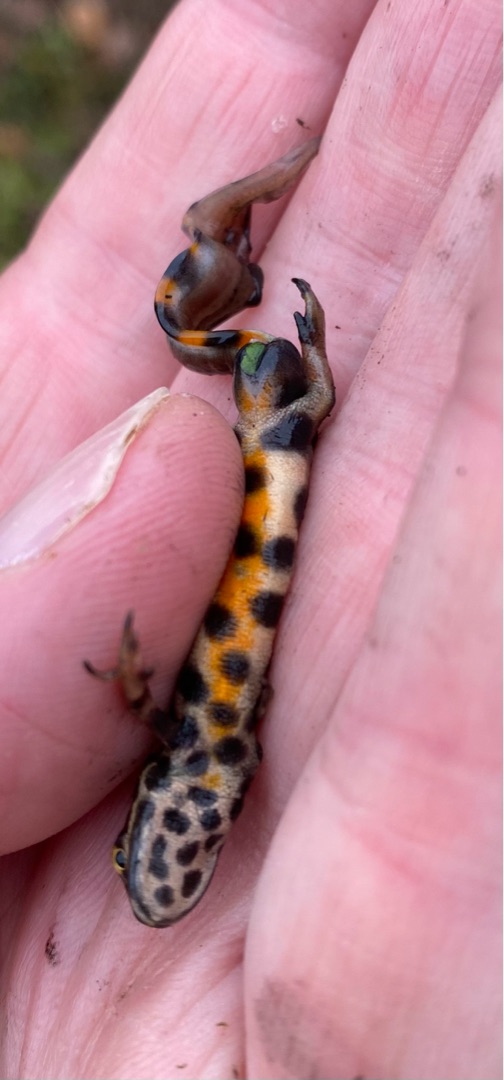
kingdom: Animalia
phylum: Chordata
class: Amphibia
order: Caudata
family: Salamandridae
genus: Lissotriton
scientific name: Lissotriton vulgaris
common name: Lille vandsalamander
